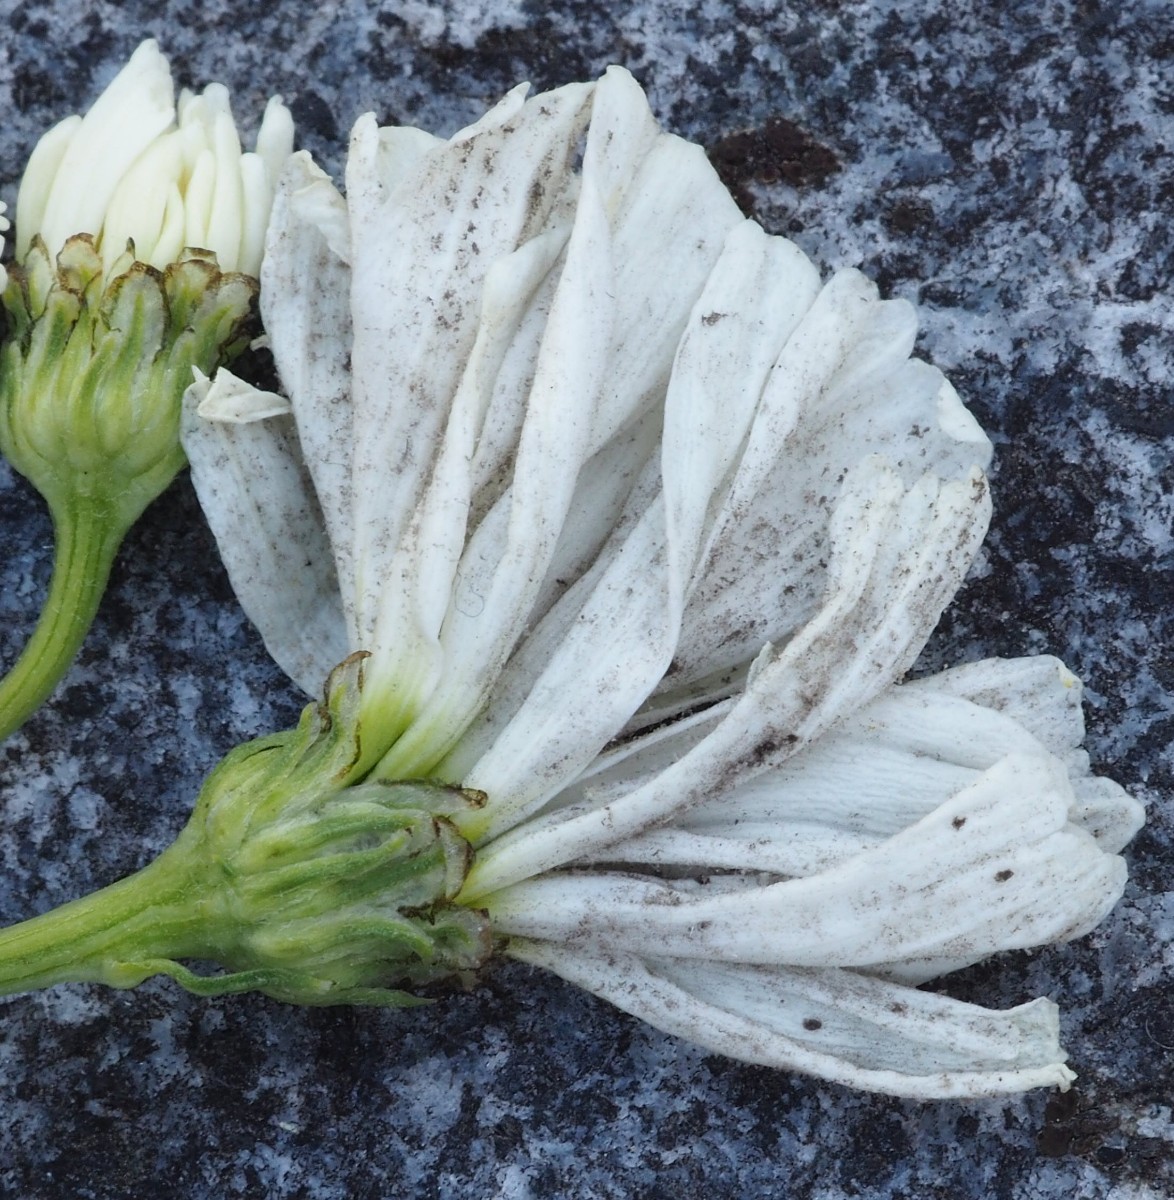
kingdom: Chromista
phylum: Oomycota
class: Peronosporea
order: Peronosporales
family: Peronosporaceae
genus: Peronospora
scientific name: Peronospora radii
